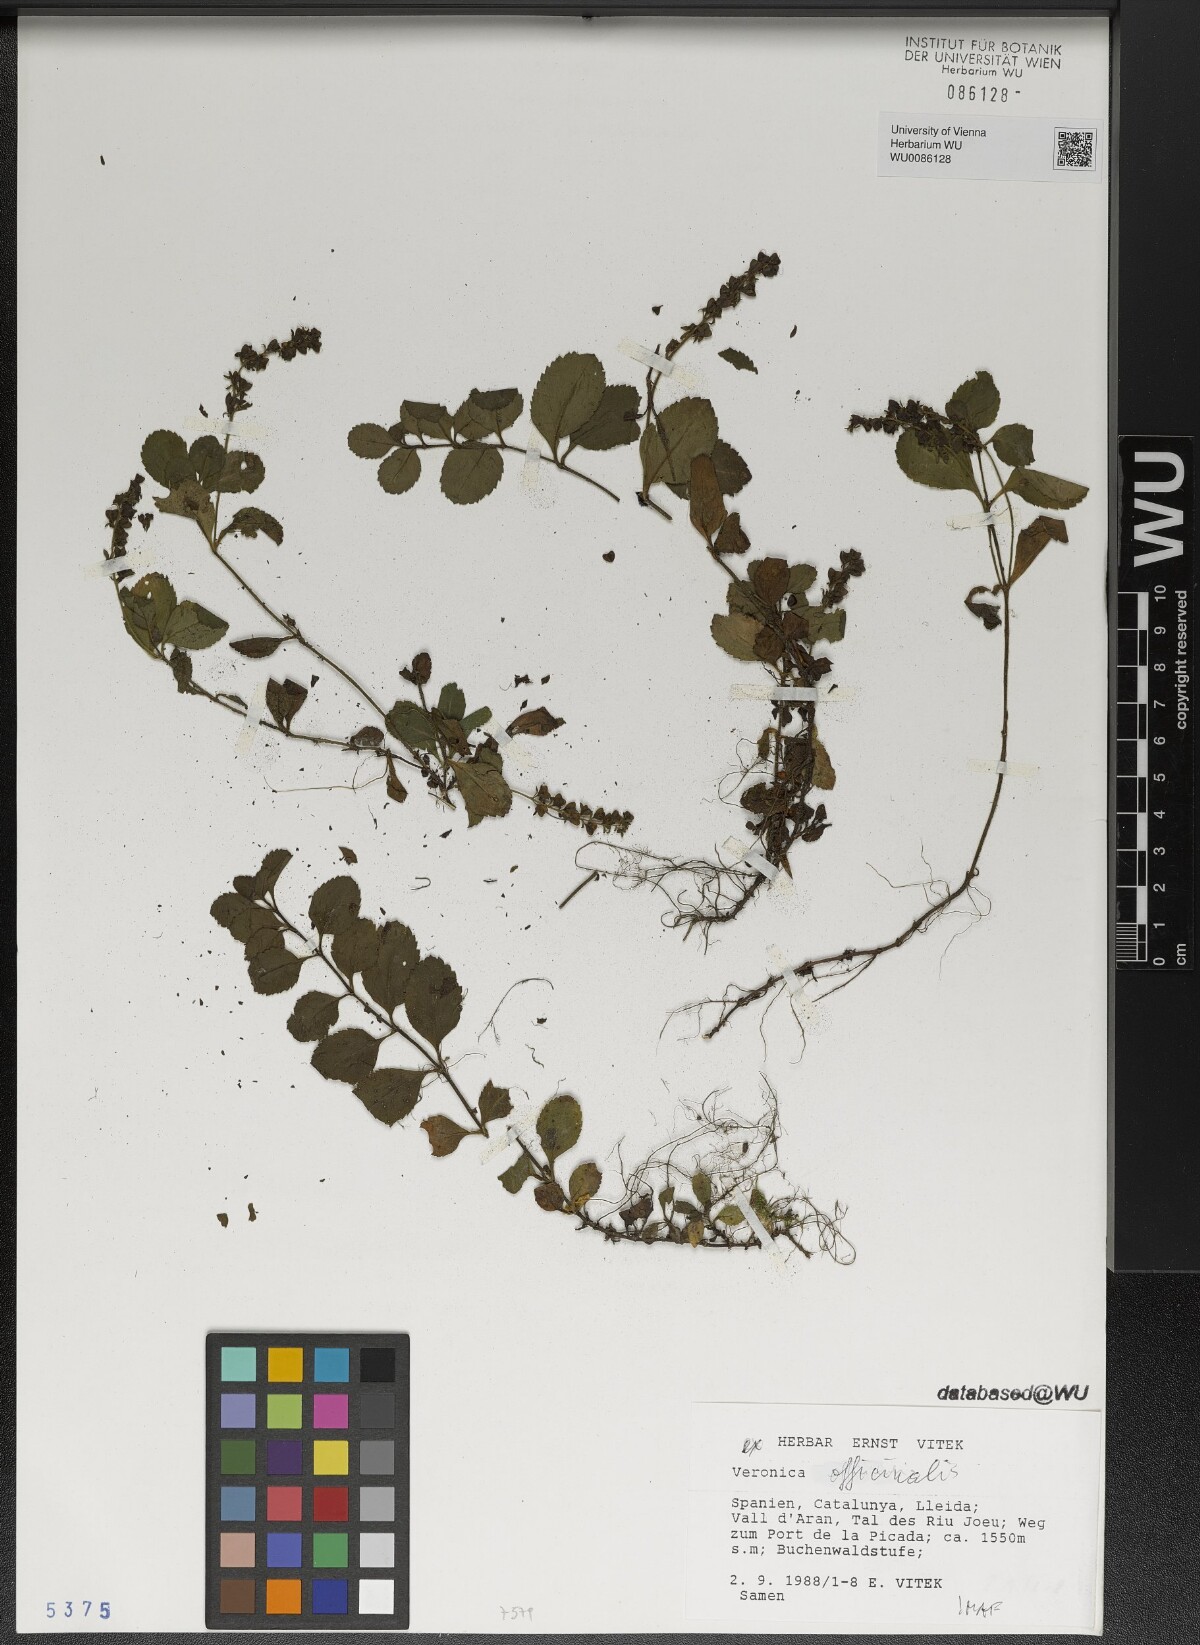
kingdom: Plantae
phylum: Tracheophyta
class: Magnoliopsida
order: Lamiales
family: Plantaginaceae
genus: Veronica
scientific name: Veronica officinalis
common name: Common speedwell
